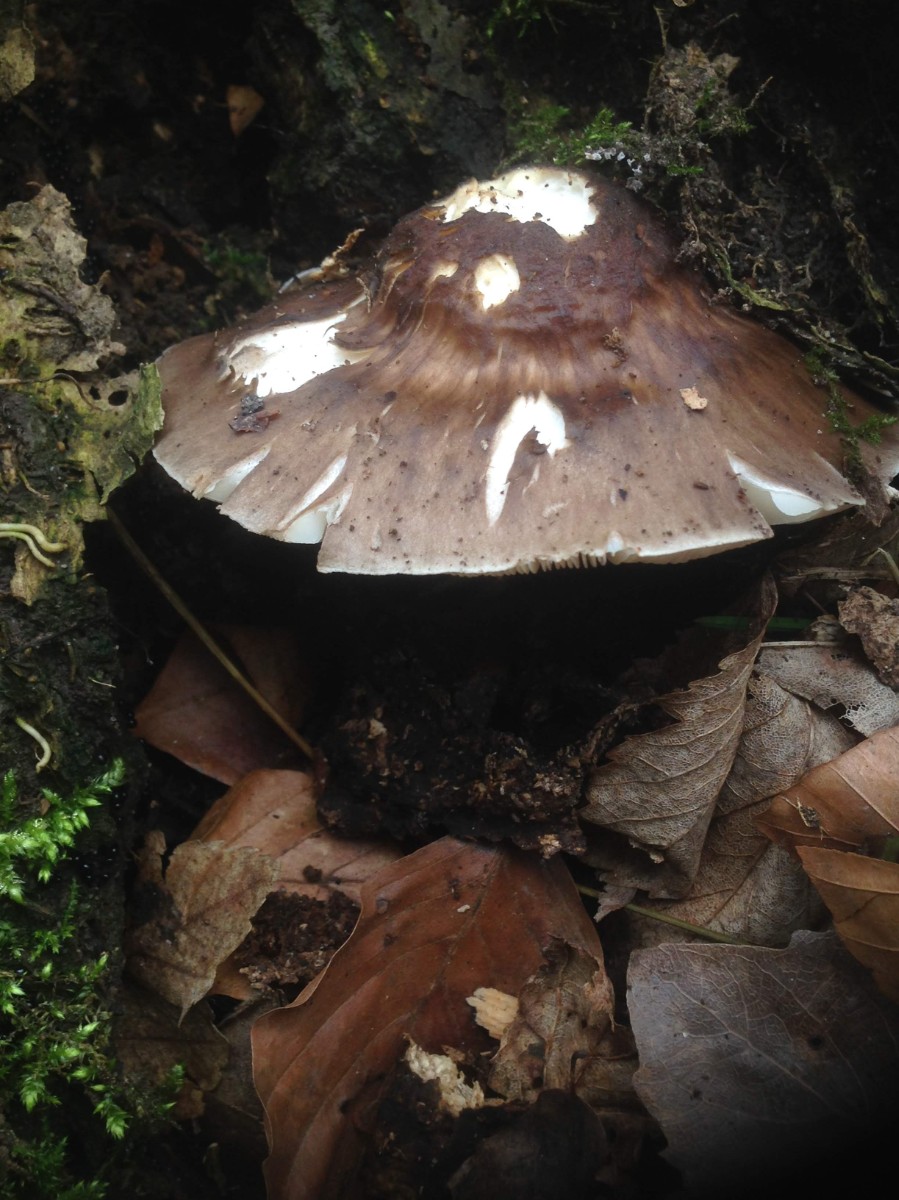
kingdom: Fungi
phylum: Basidiomycota
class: Agaricomycetes
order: Agaricales
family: Pluteaceae
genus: Pluteus
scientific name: Pluteus cervinus
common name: sodfarvet skærmhat
